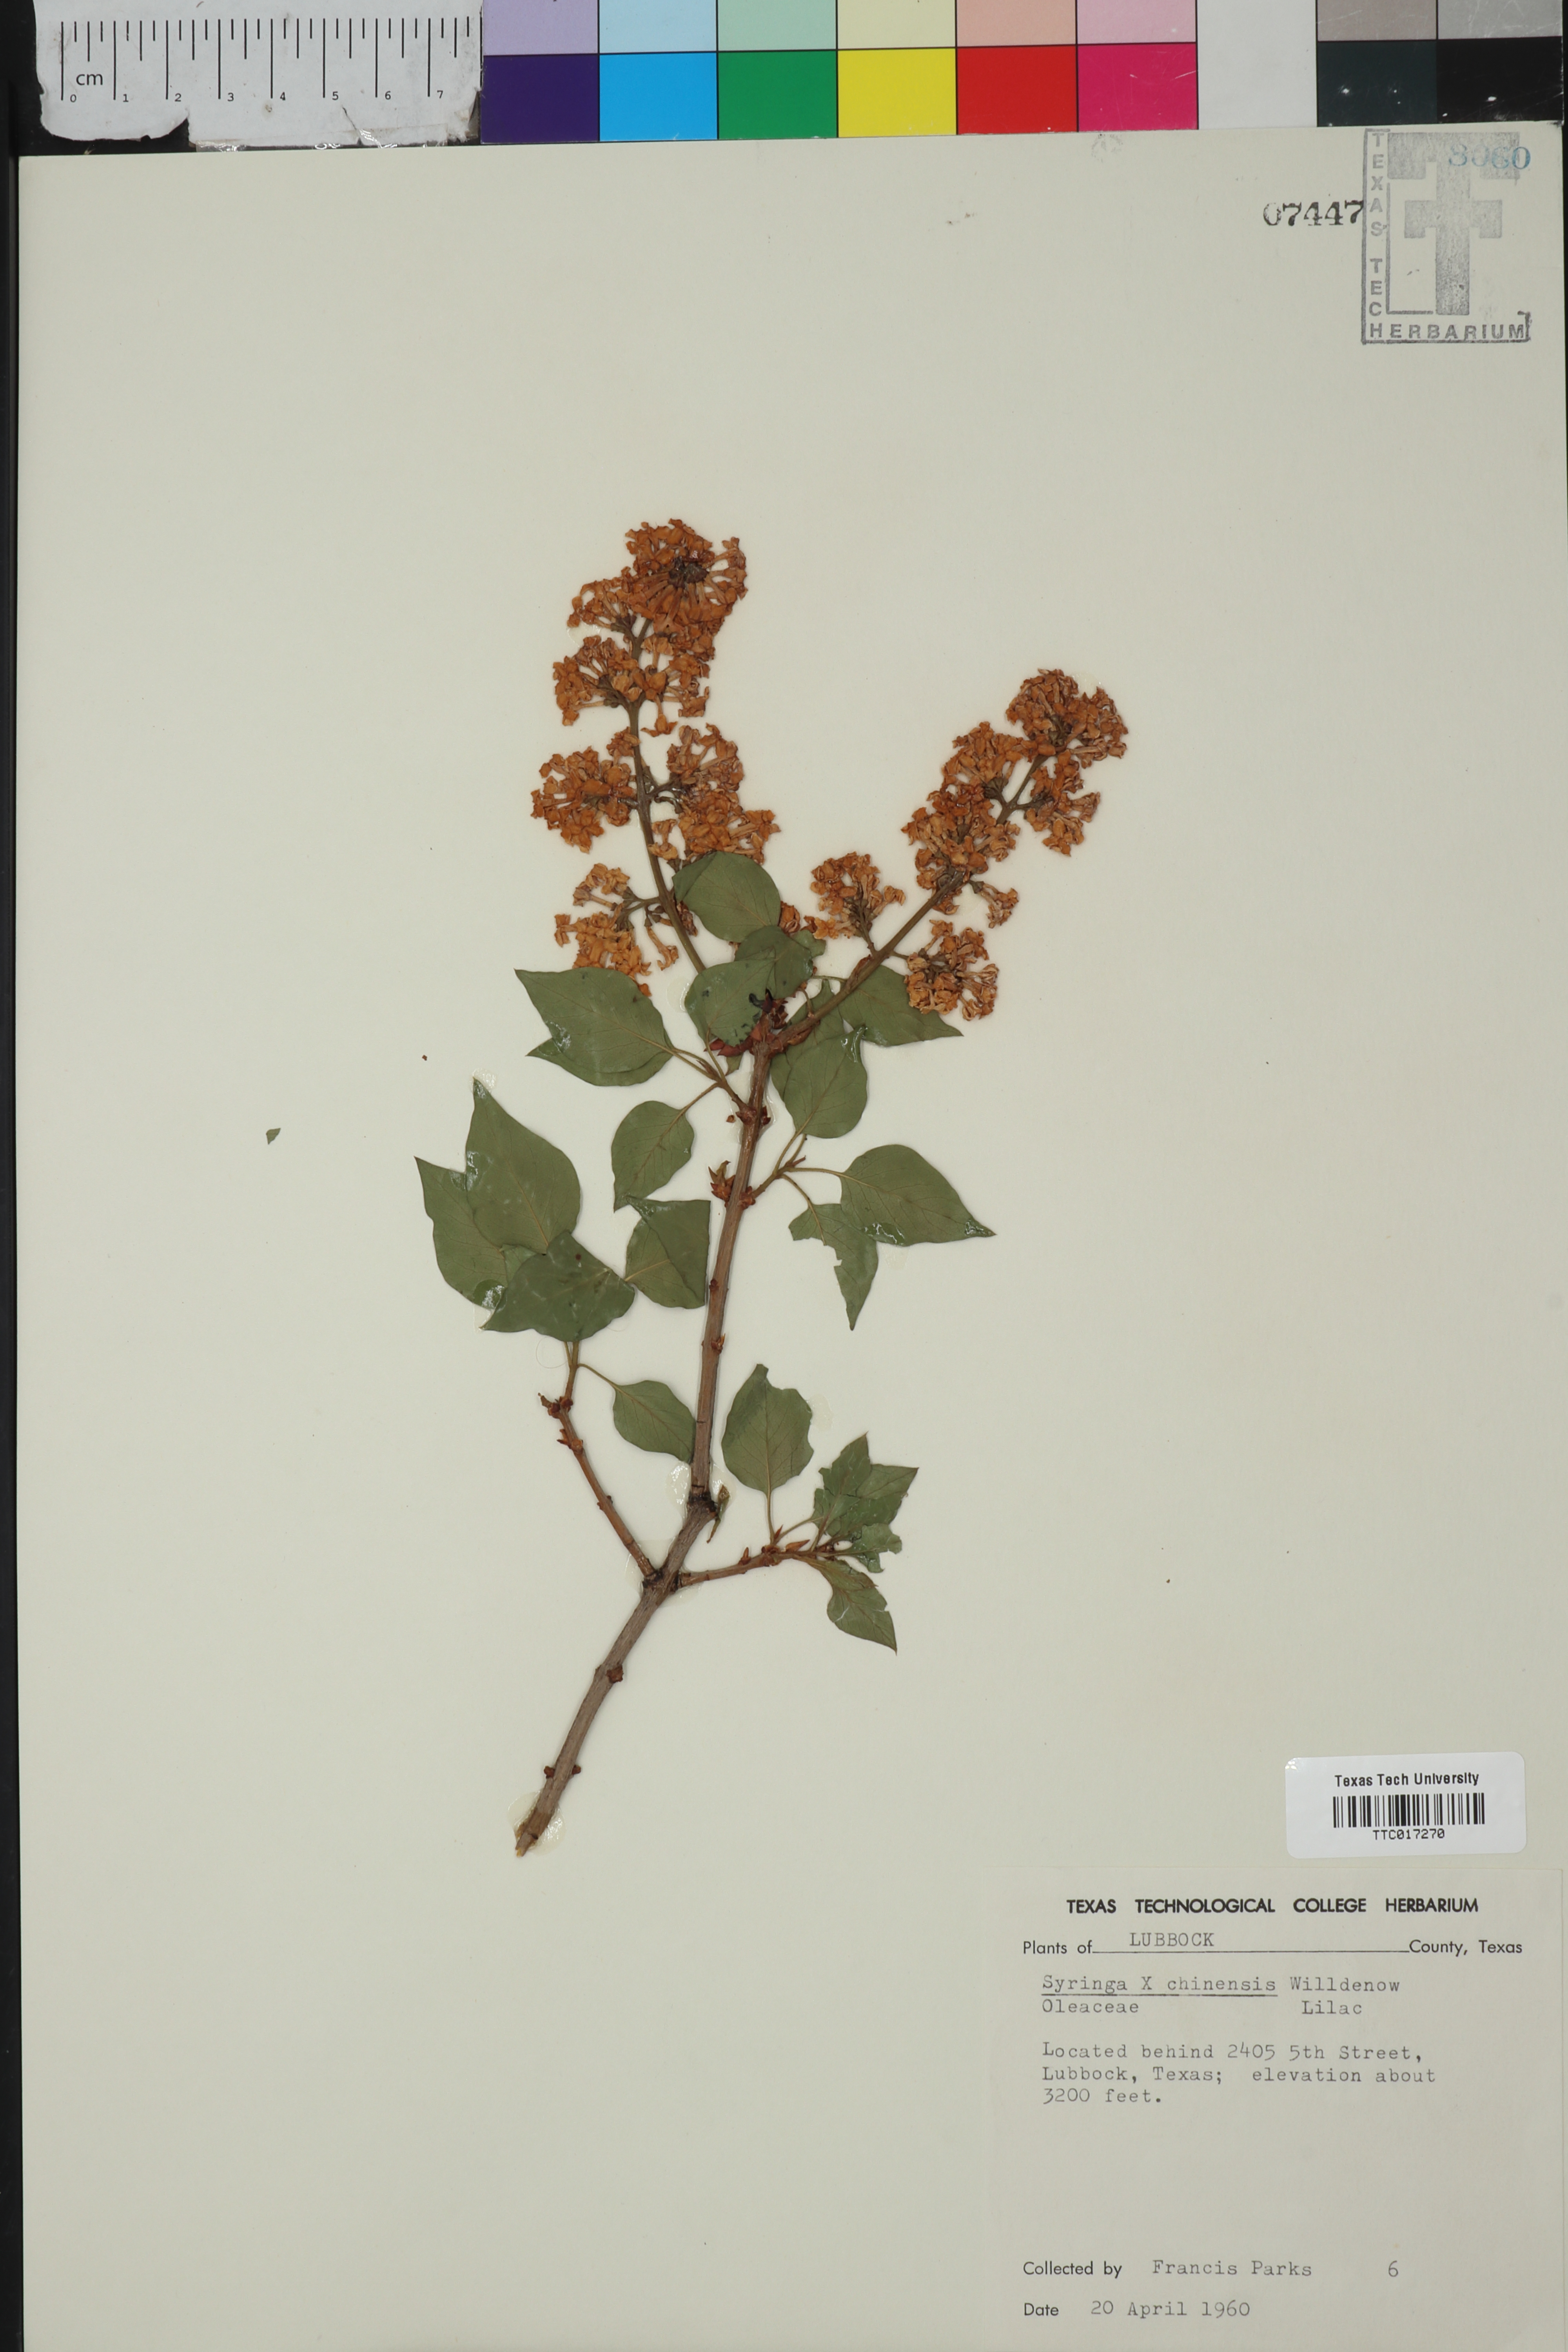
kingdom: Plantae
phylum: Tracheophyta
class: Magnoliopsida
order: Lamiales
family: Oleaceae
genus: Syringa
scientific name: Syringa chinensis
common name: Chinese lilac
